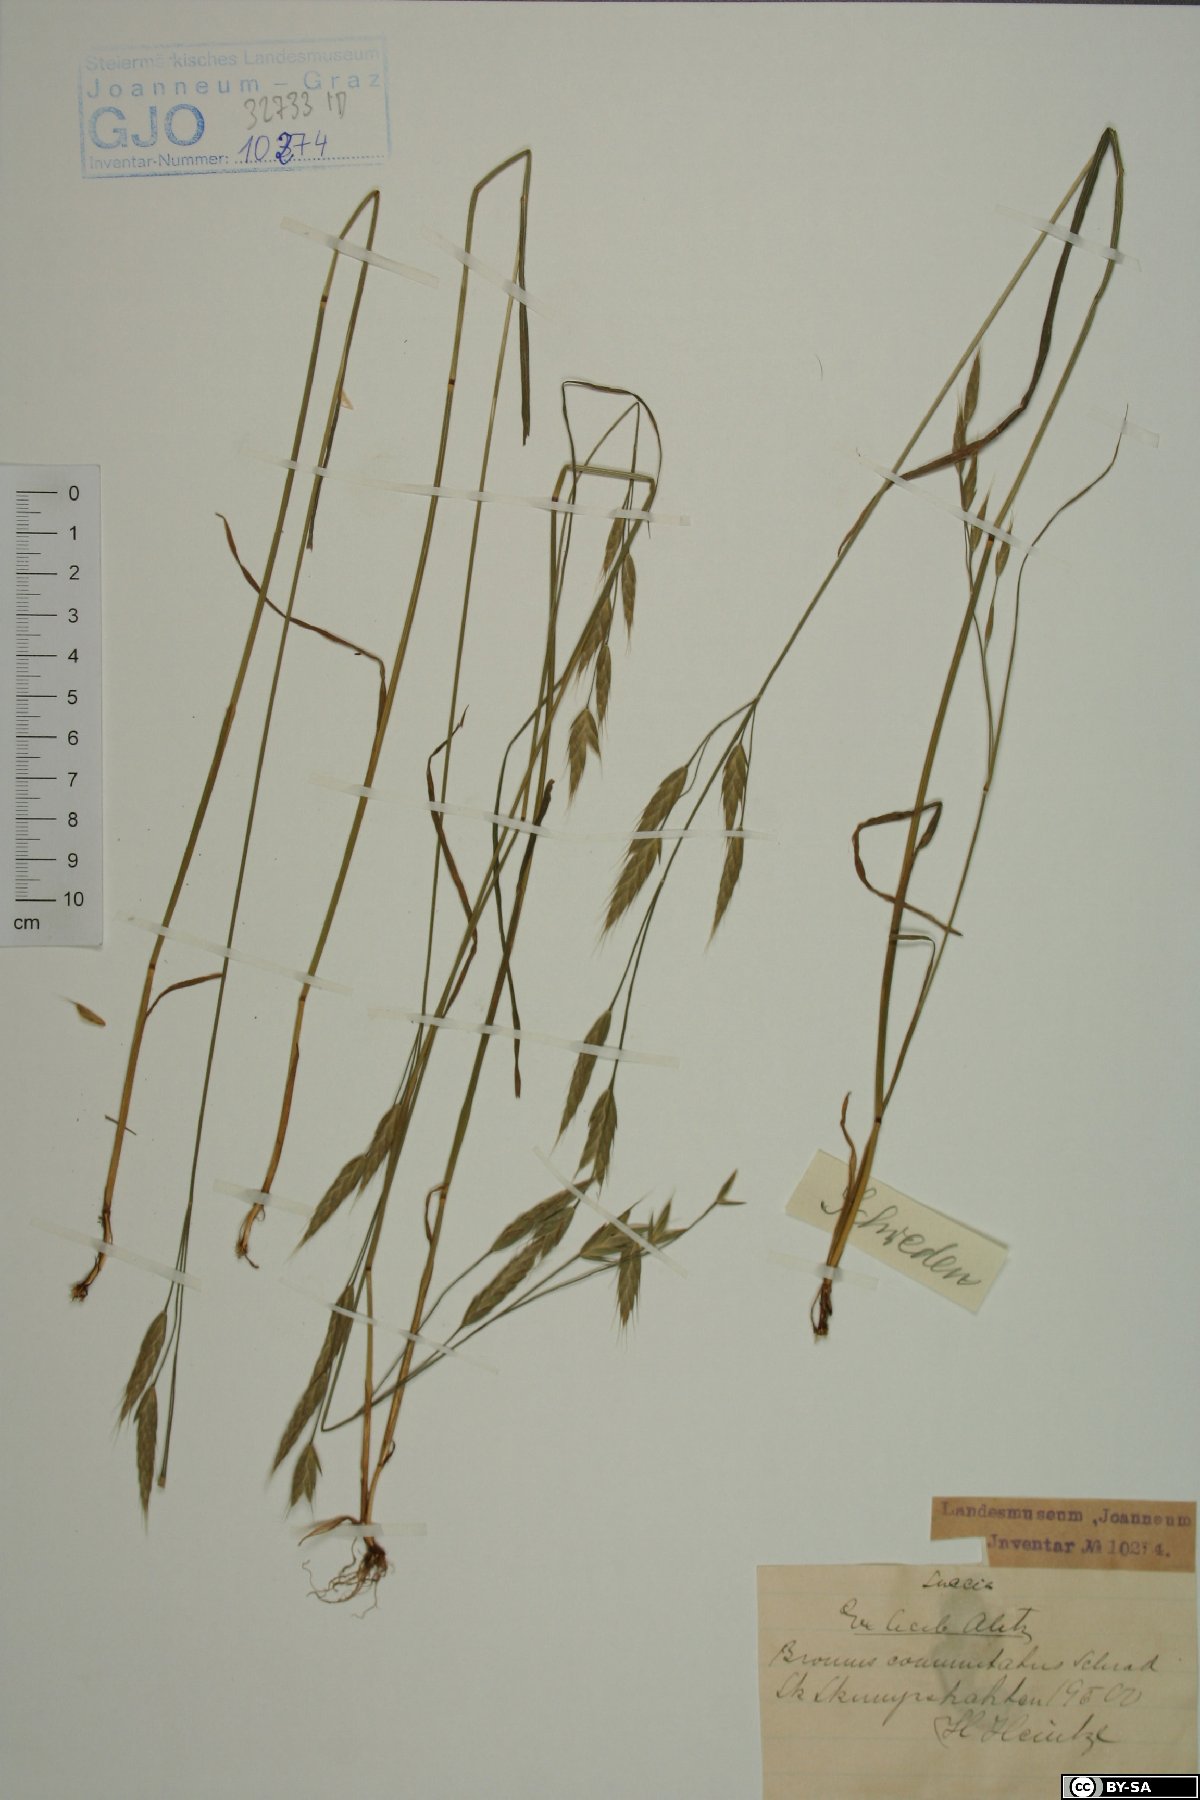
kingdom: Plantae
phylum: Tracheophyta
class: Liliopsida
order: Poales
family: Poaceae
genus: Bromus
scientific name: Bromus commutatus
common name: Meadow brome
